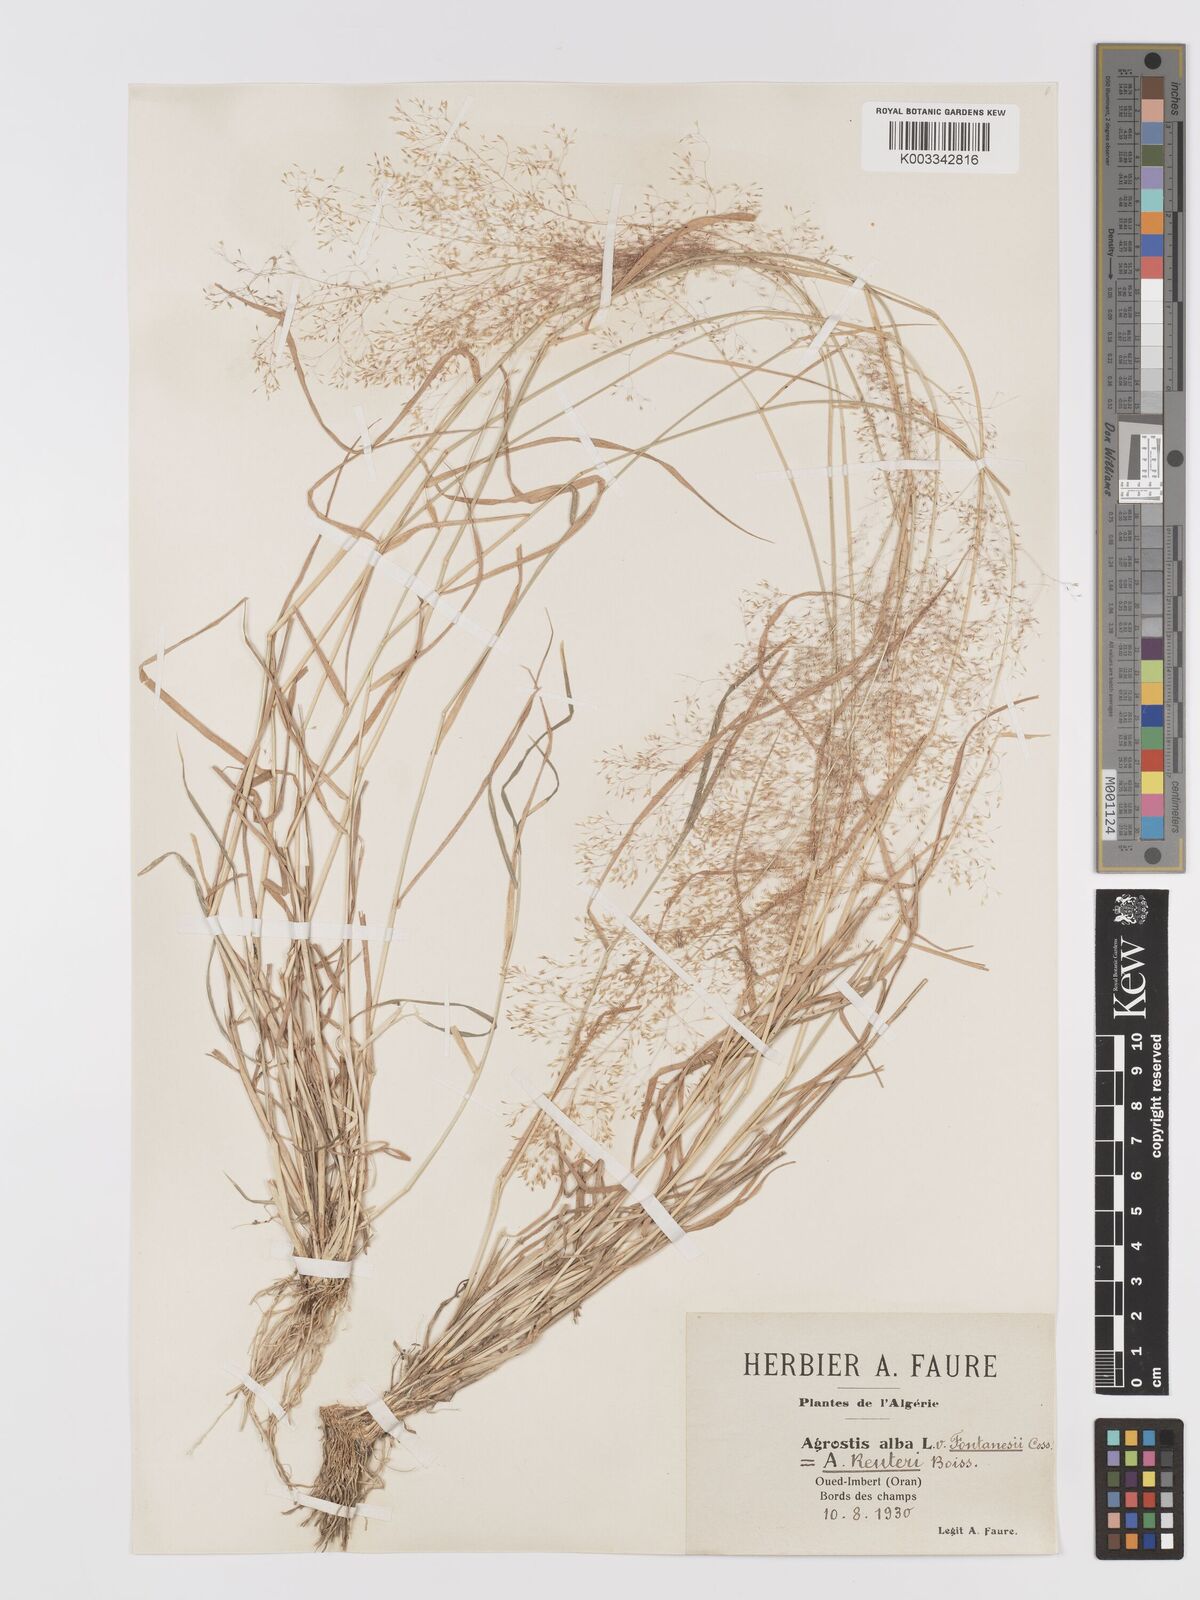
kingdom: Plantae
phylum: Tracheophyta
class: Liliopsida
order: Poales
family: Poaceae
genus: Agrostis
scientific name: Agrostis reuteri
